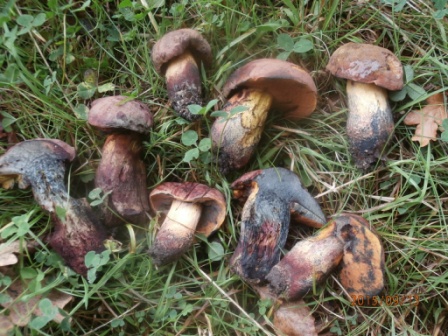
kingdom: Fungi
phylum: Basidiomycota
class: Agaricomycetes
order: Boletales
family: Boletaceae
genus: Suillellus
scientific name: Suillellus queletii
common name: glatstokket indigorørhat
